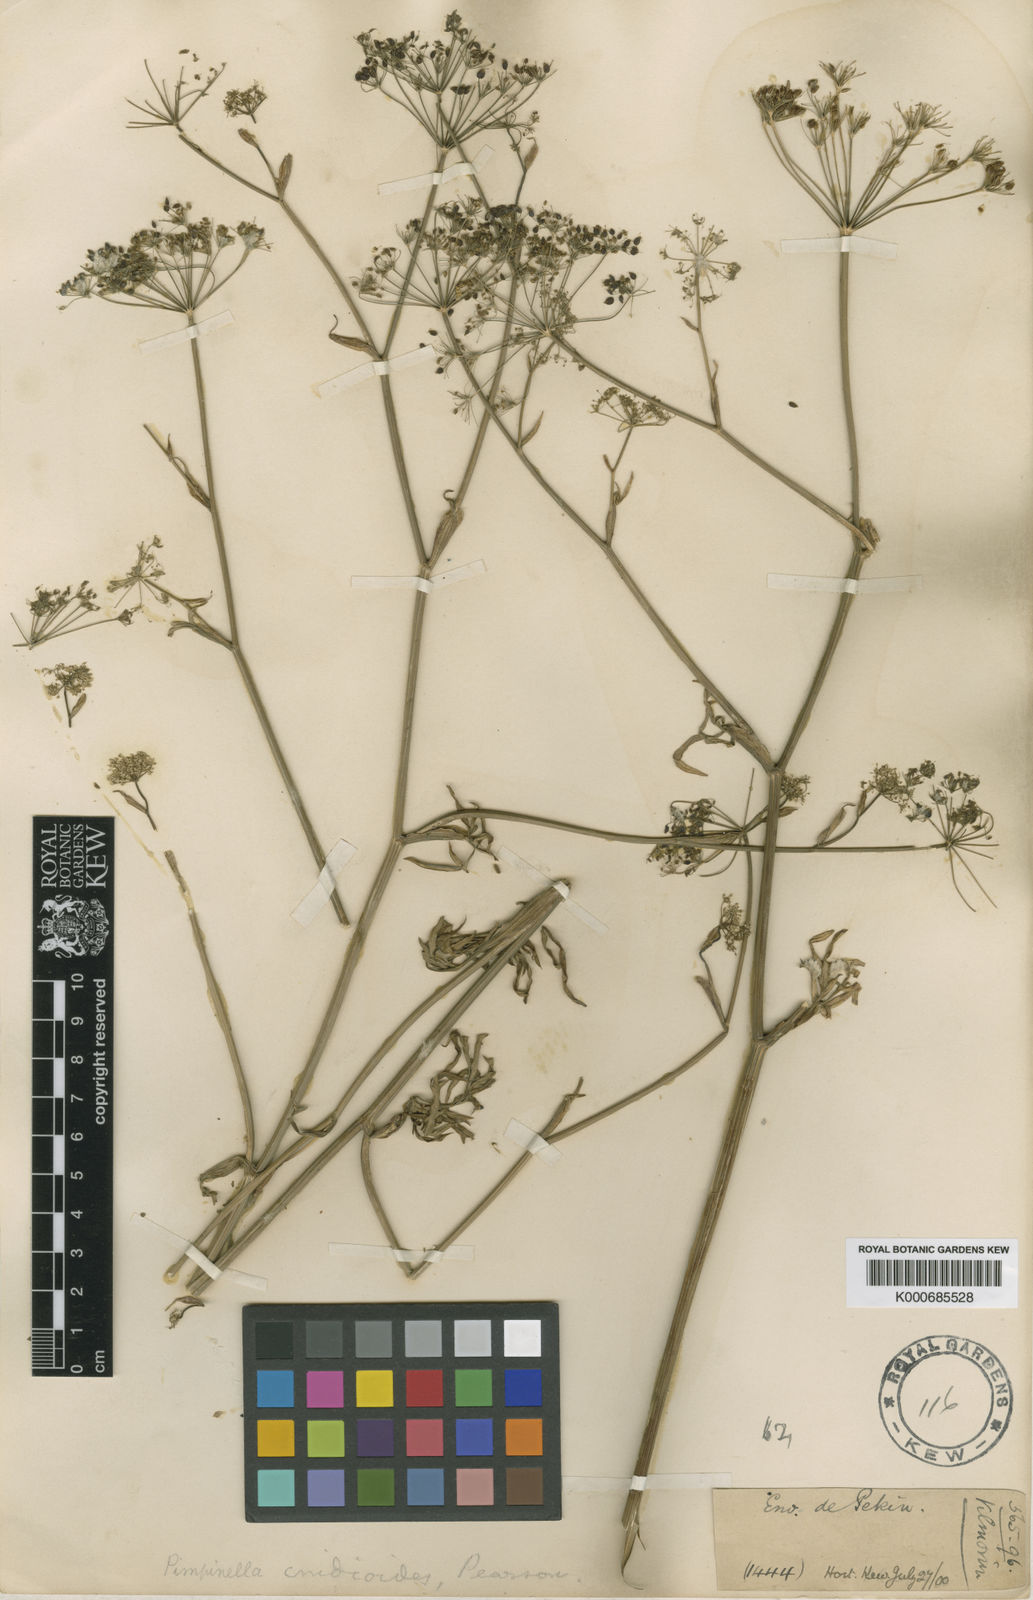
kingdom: Plantae
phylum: Tracheophyta
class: Magnoliopsida
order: Apiales
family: Apiaceae
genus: Pimpinella
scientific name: Pimpinella
